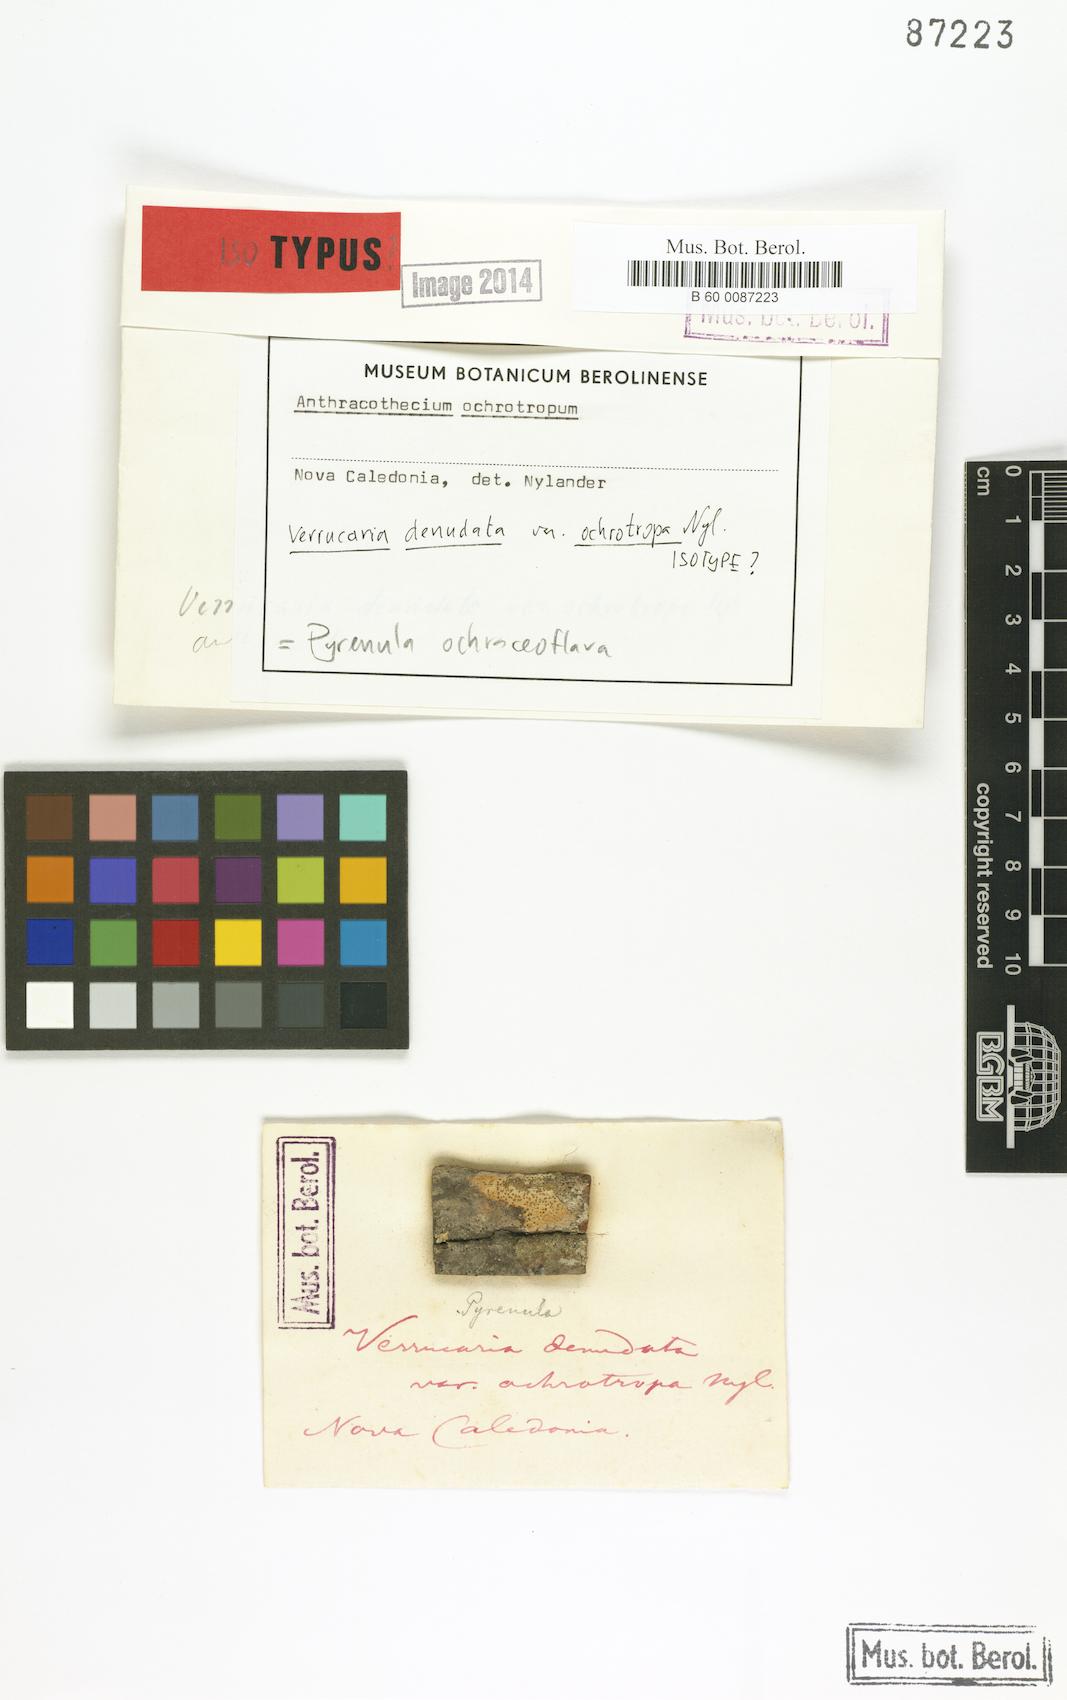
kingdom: Fungi
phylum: Ascomycota
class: Eurotiomycetes
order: Verrucariales
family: Verrucariaceae
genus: Verrucaria
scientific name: Verrucaria
